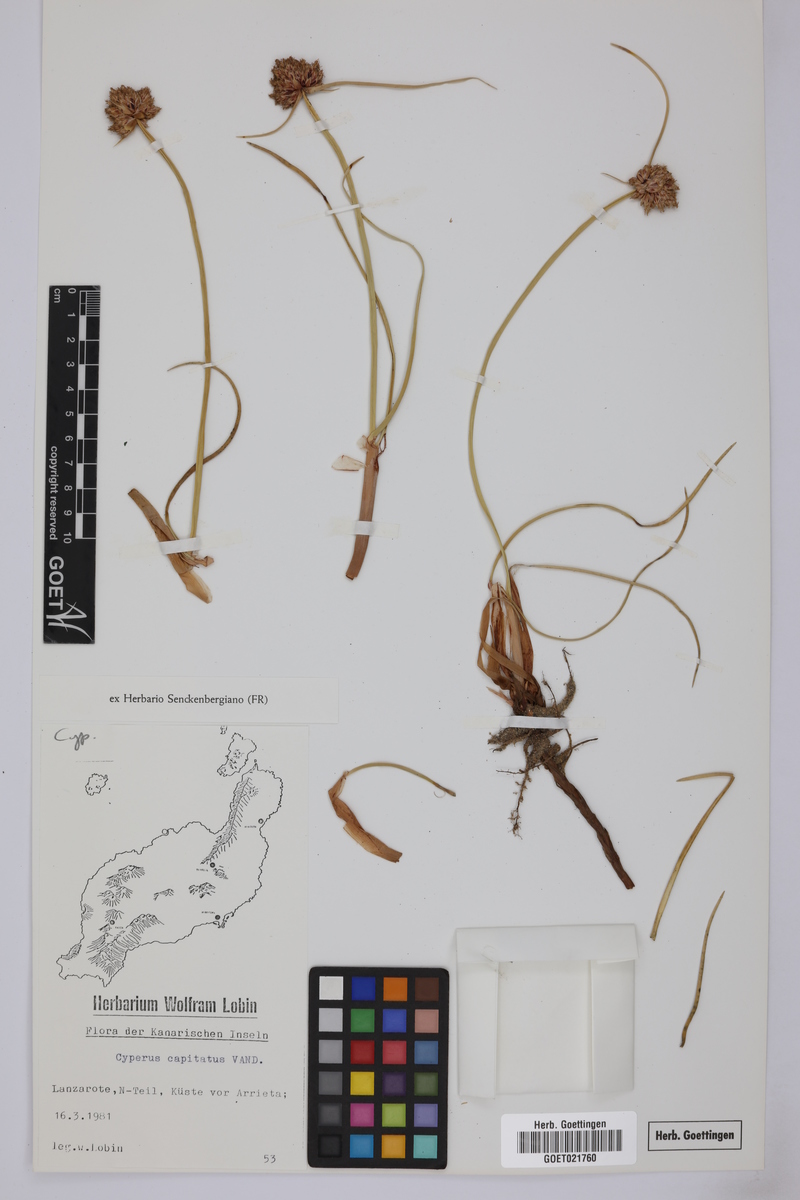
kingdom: Plantae
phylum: Tracheophyta
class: Liliopsida
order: Poales
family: Cyperaceae
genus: Cyperus
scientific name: Cyperus capitatus
